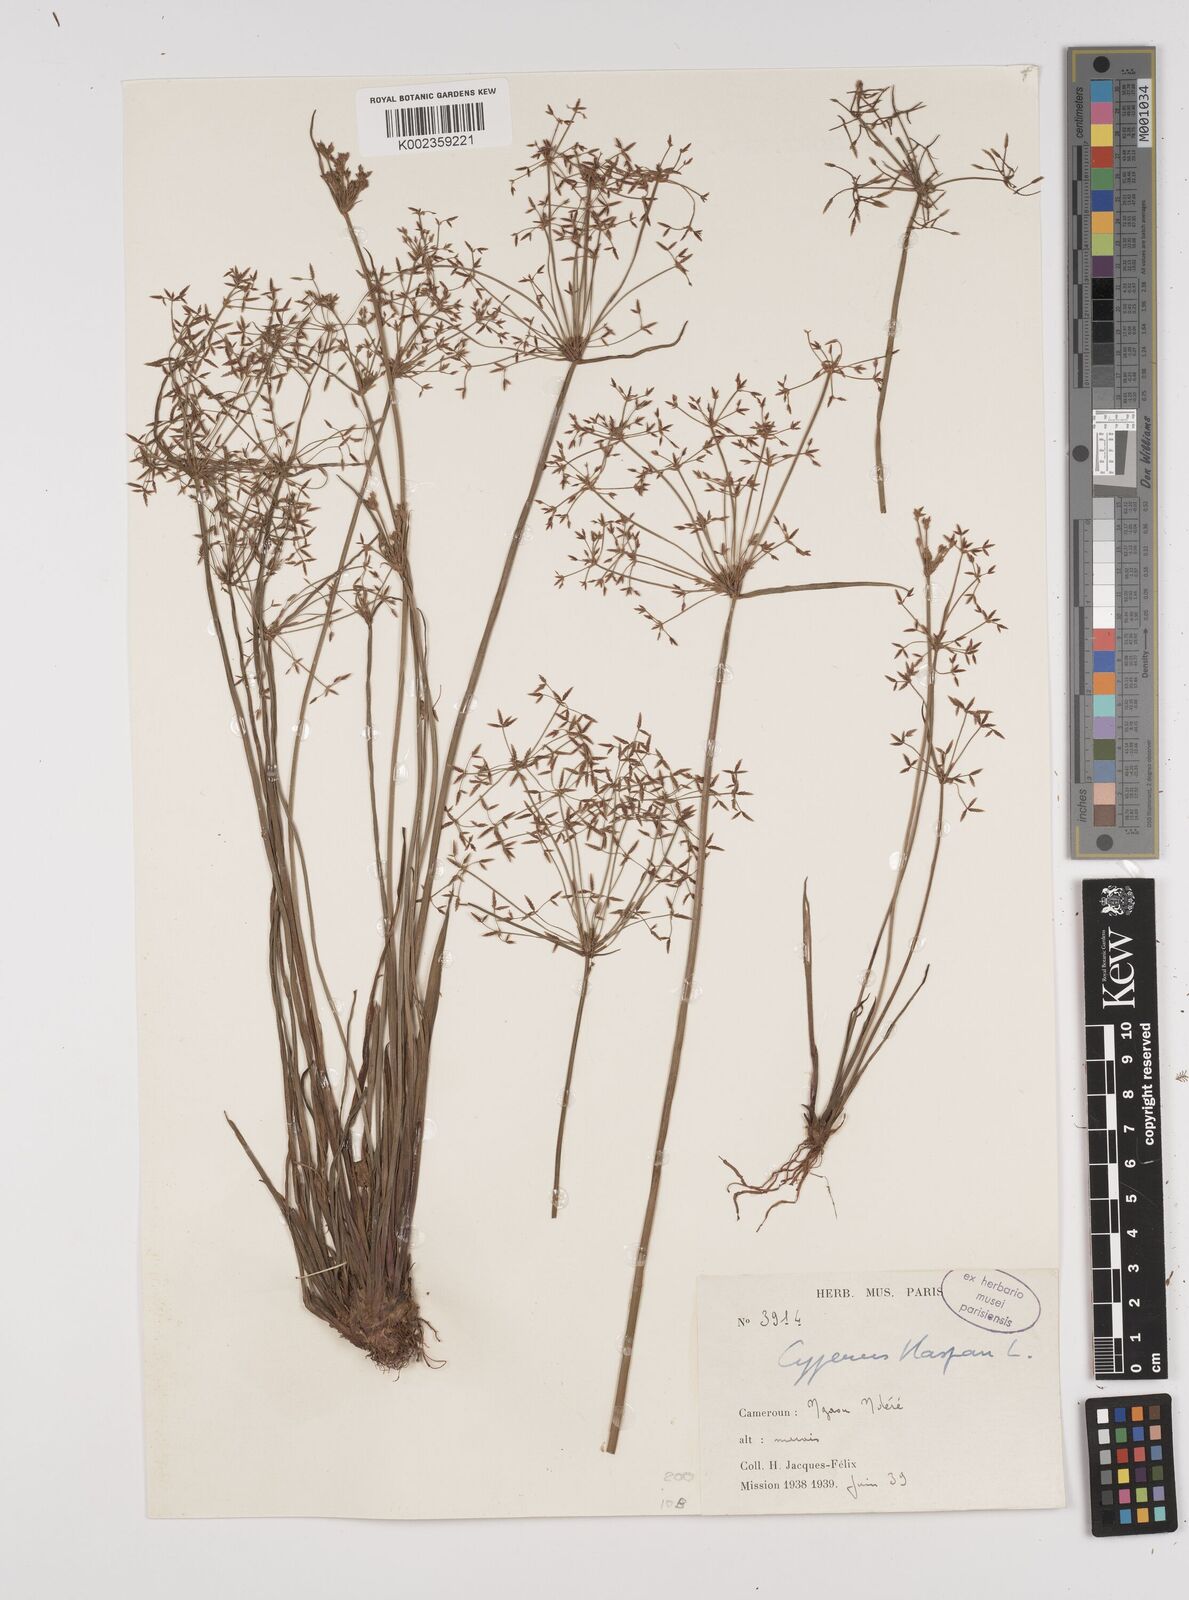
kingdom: Plantae
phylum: Tracheophyta
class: Liliopsida
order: Poales
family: Cyperaceae
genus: Cyperus
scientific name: Cyperus haspan
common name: Haspan flatsedge
